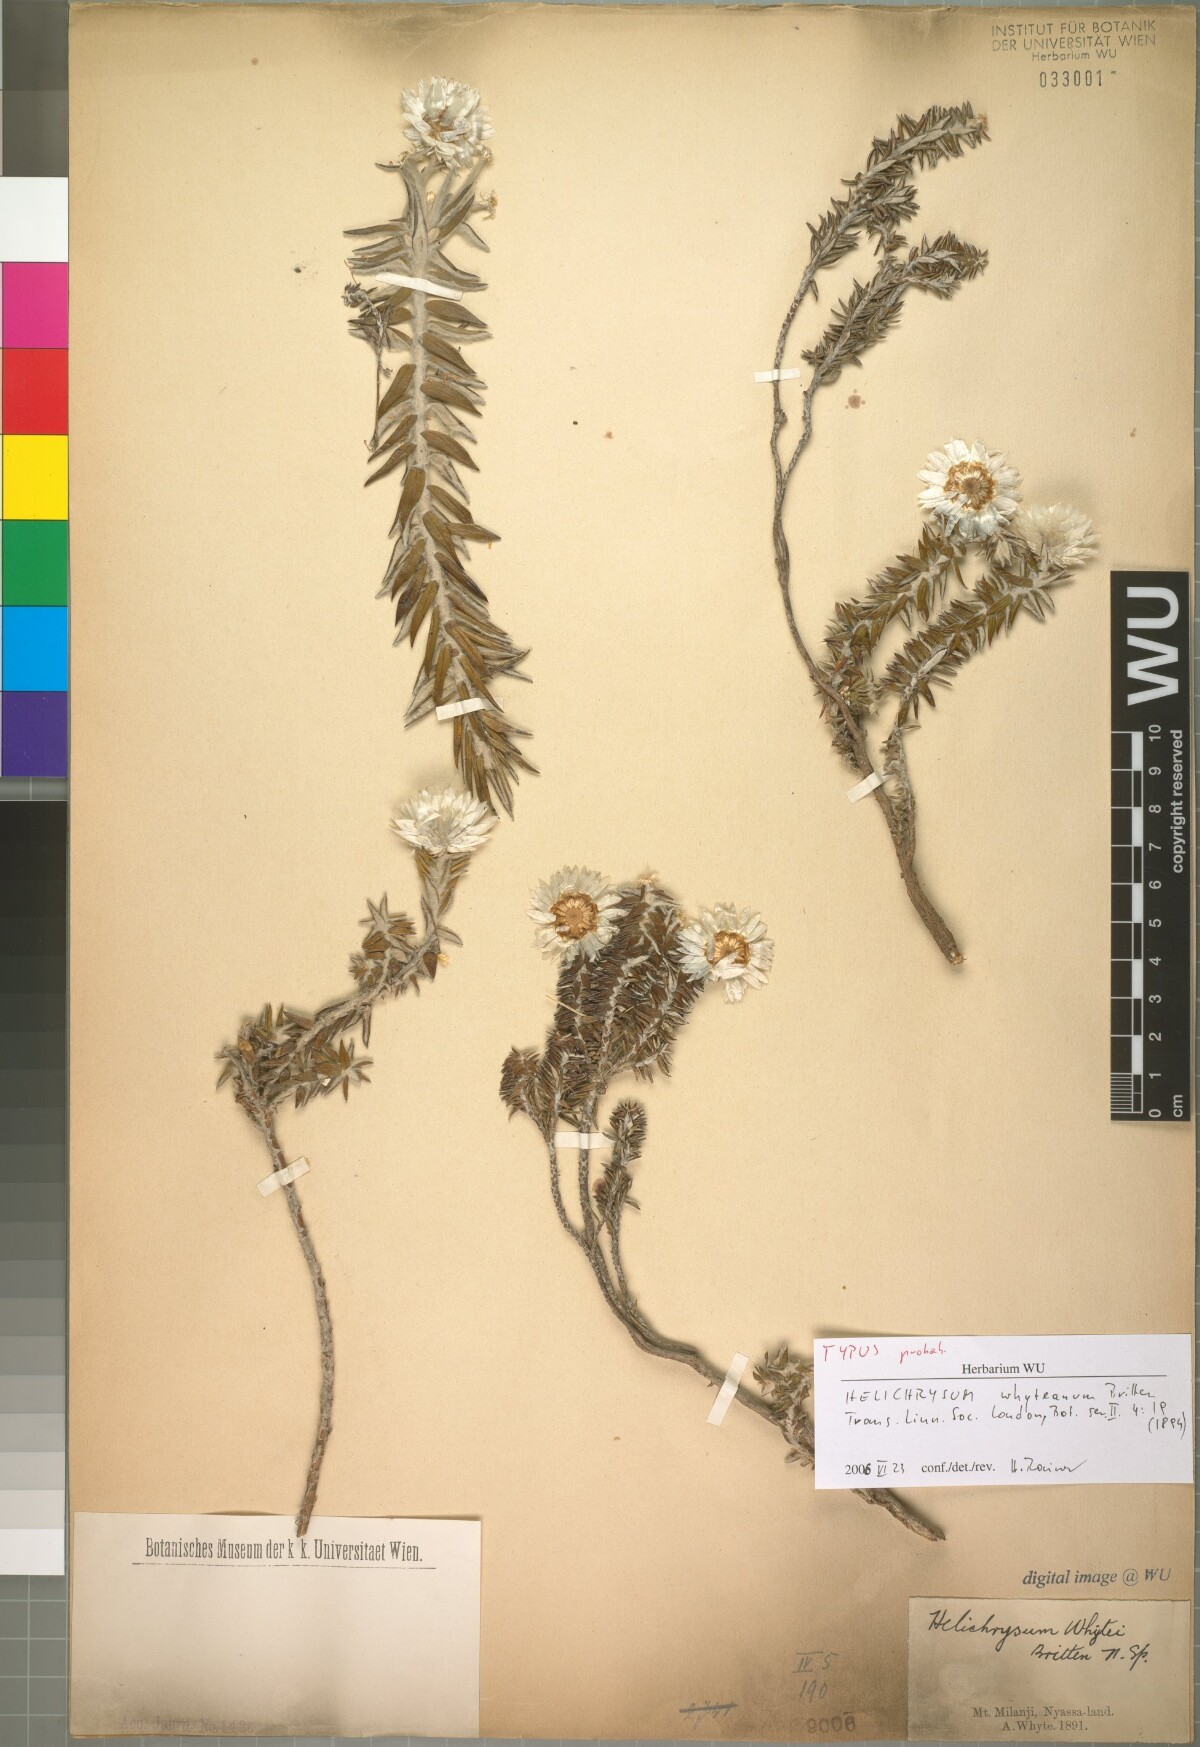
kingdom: Plantae
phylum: Tracheophyta
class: Magnoliopsida
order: Asterales
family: Asteraceae
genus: Helichrysum
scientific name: Helichrysum whyteanum
